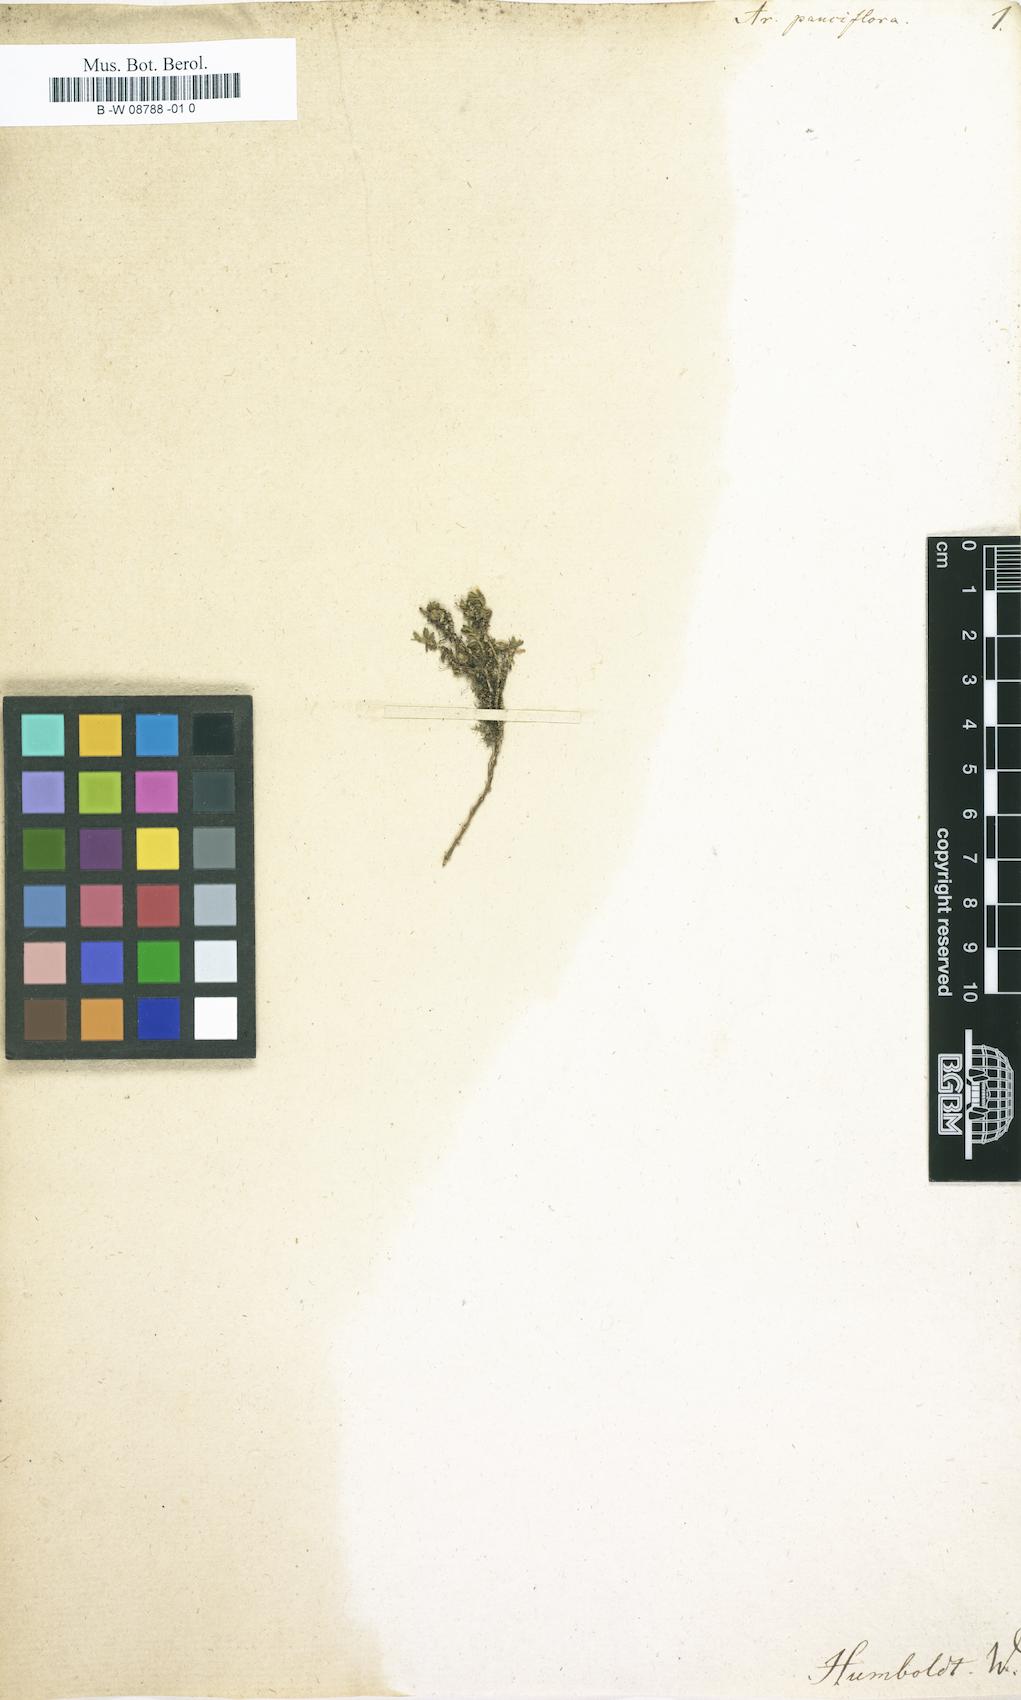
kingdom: Plantae
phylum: Tracheophyta
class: Magnoliopsida
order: Caryophyllales
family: Caryophyllaceae
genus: Minuartia
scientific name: Minuartia pauciflora
